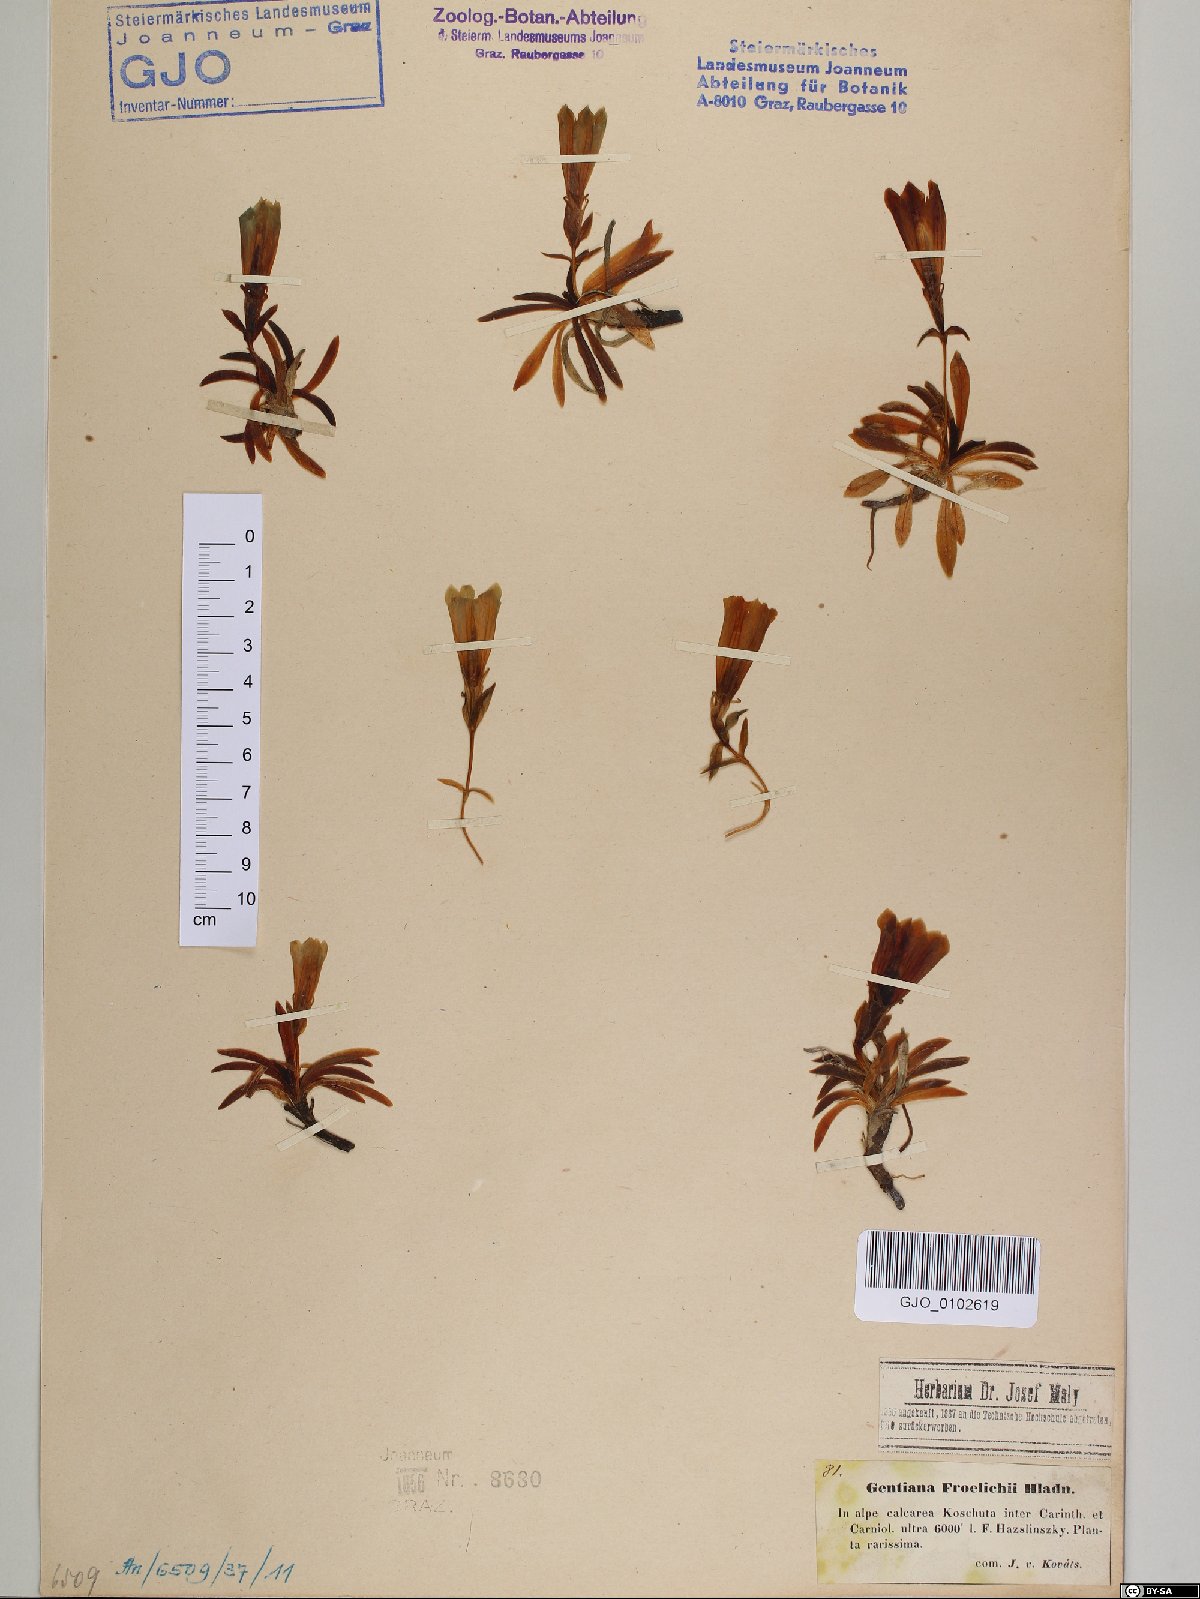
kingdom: Plantae
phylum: Tracheophyta
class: Magnoliopsida
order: Gentianales
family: Gentianaceae
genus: Gentiana
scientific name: Gentiana froelichii
